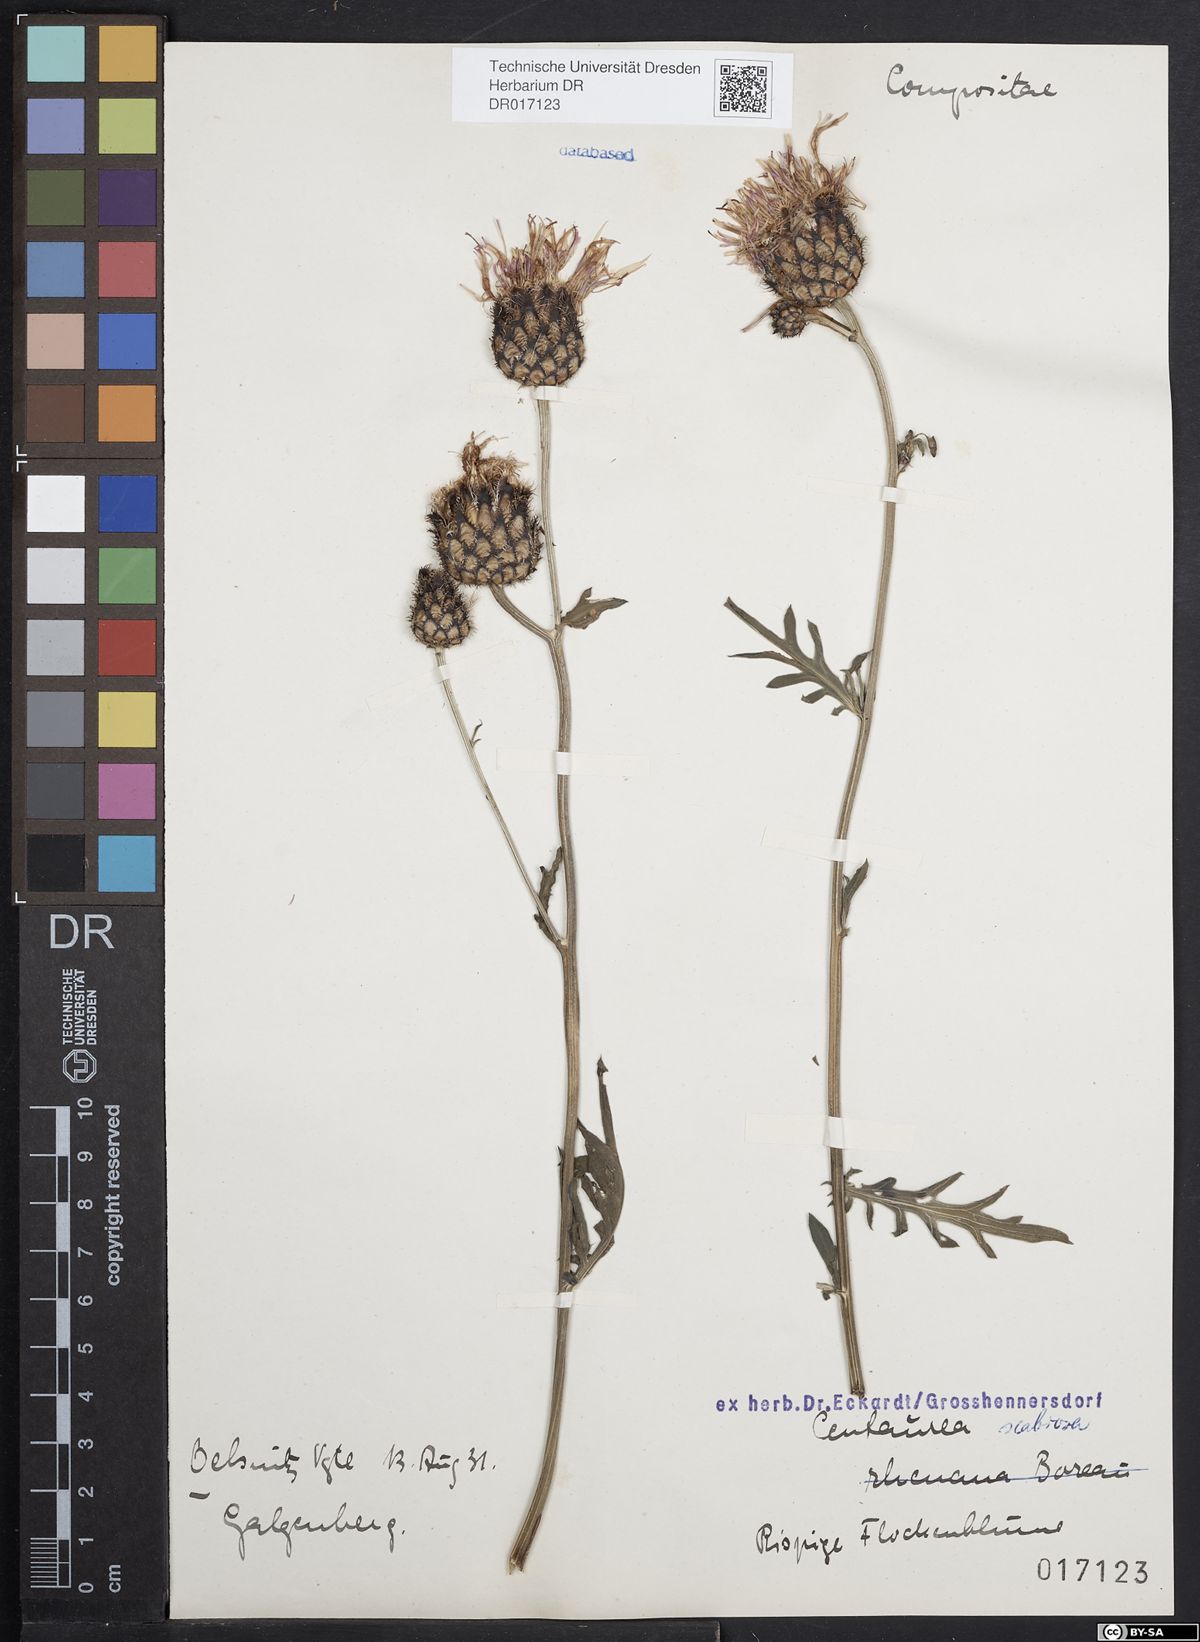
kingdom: Plantae
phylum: Tracheophyta
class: Magnoliopsida
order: Asterales
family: Asteraceae
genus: Centaurea
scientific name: Centaurea scabiosa
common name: Greater knapweed
